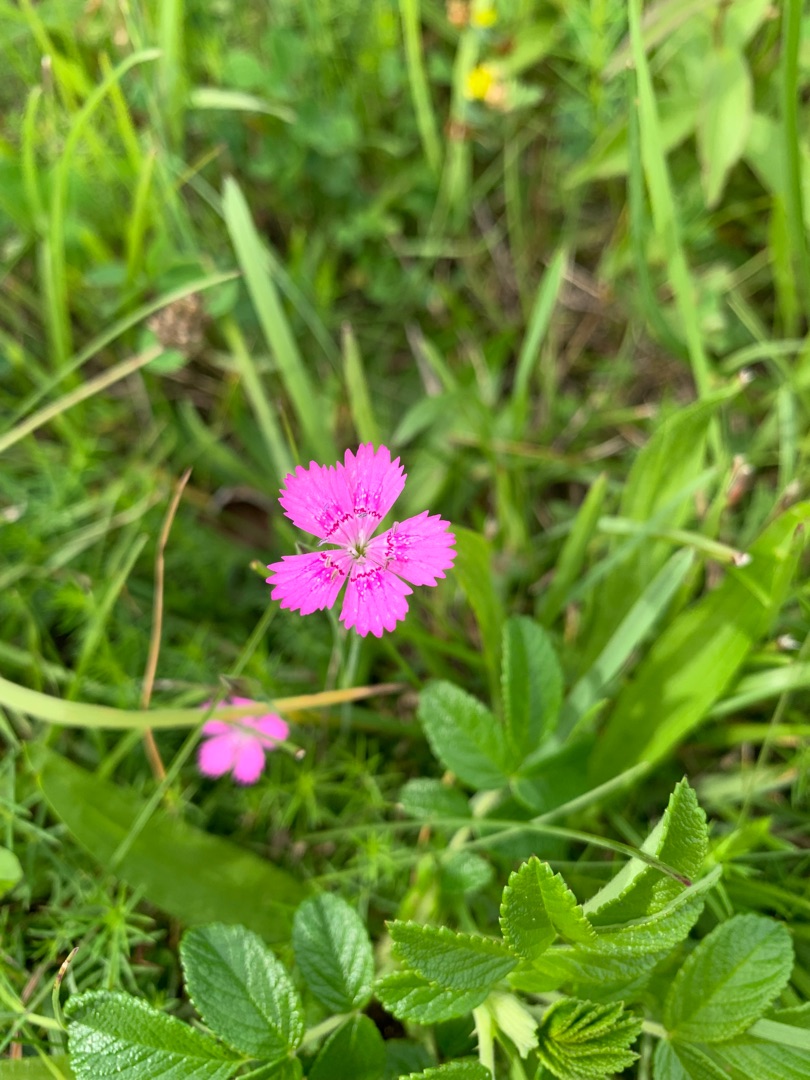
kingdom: Plantae
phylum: Tracheophyta
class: Magnoliopsida
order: Caryophyllales
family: Caryophyllaceae
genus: Dianthus
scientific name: Dianthus deltoides
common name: Bakke-nellike
